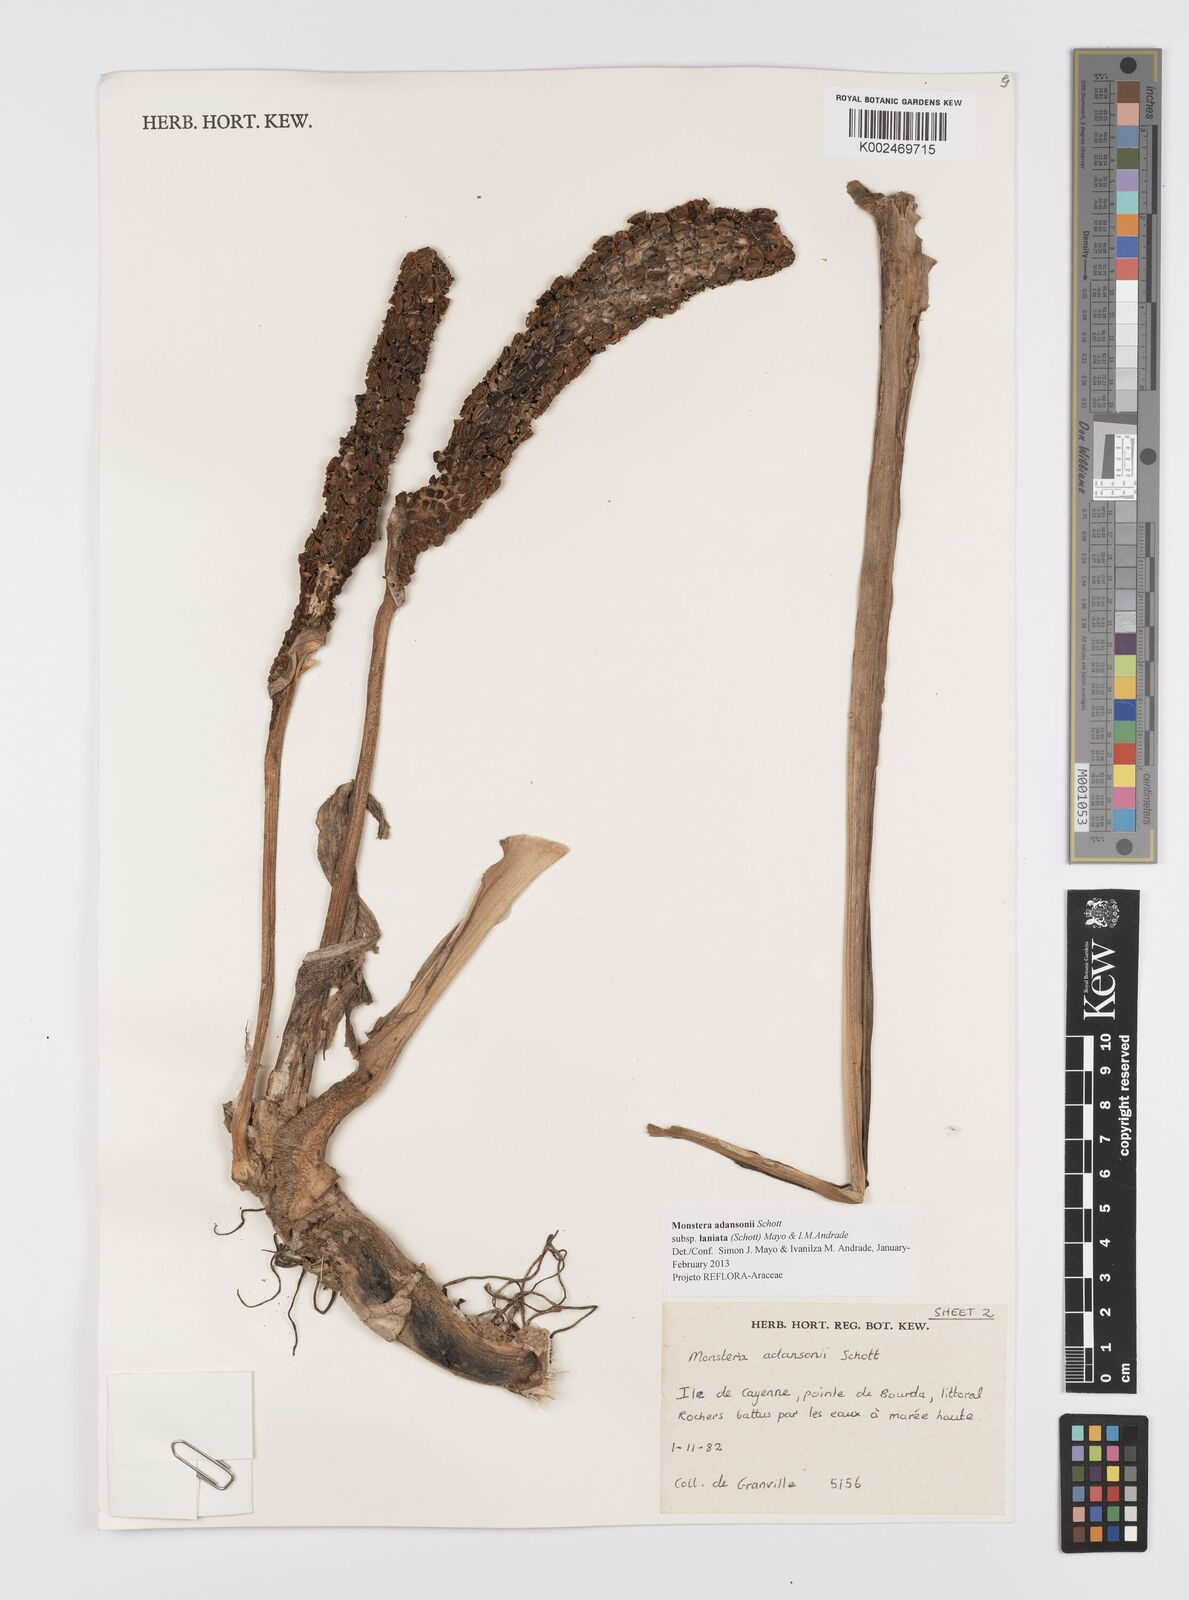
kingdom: Plantae
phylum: Tracheophyta
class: Liliopsida
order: Alismatales
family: Araceae
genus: Monstera
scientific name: Monstera adansonii
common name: Tarovine
